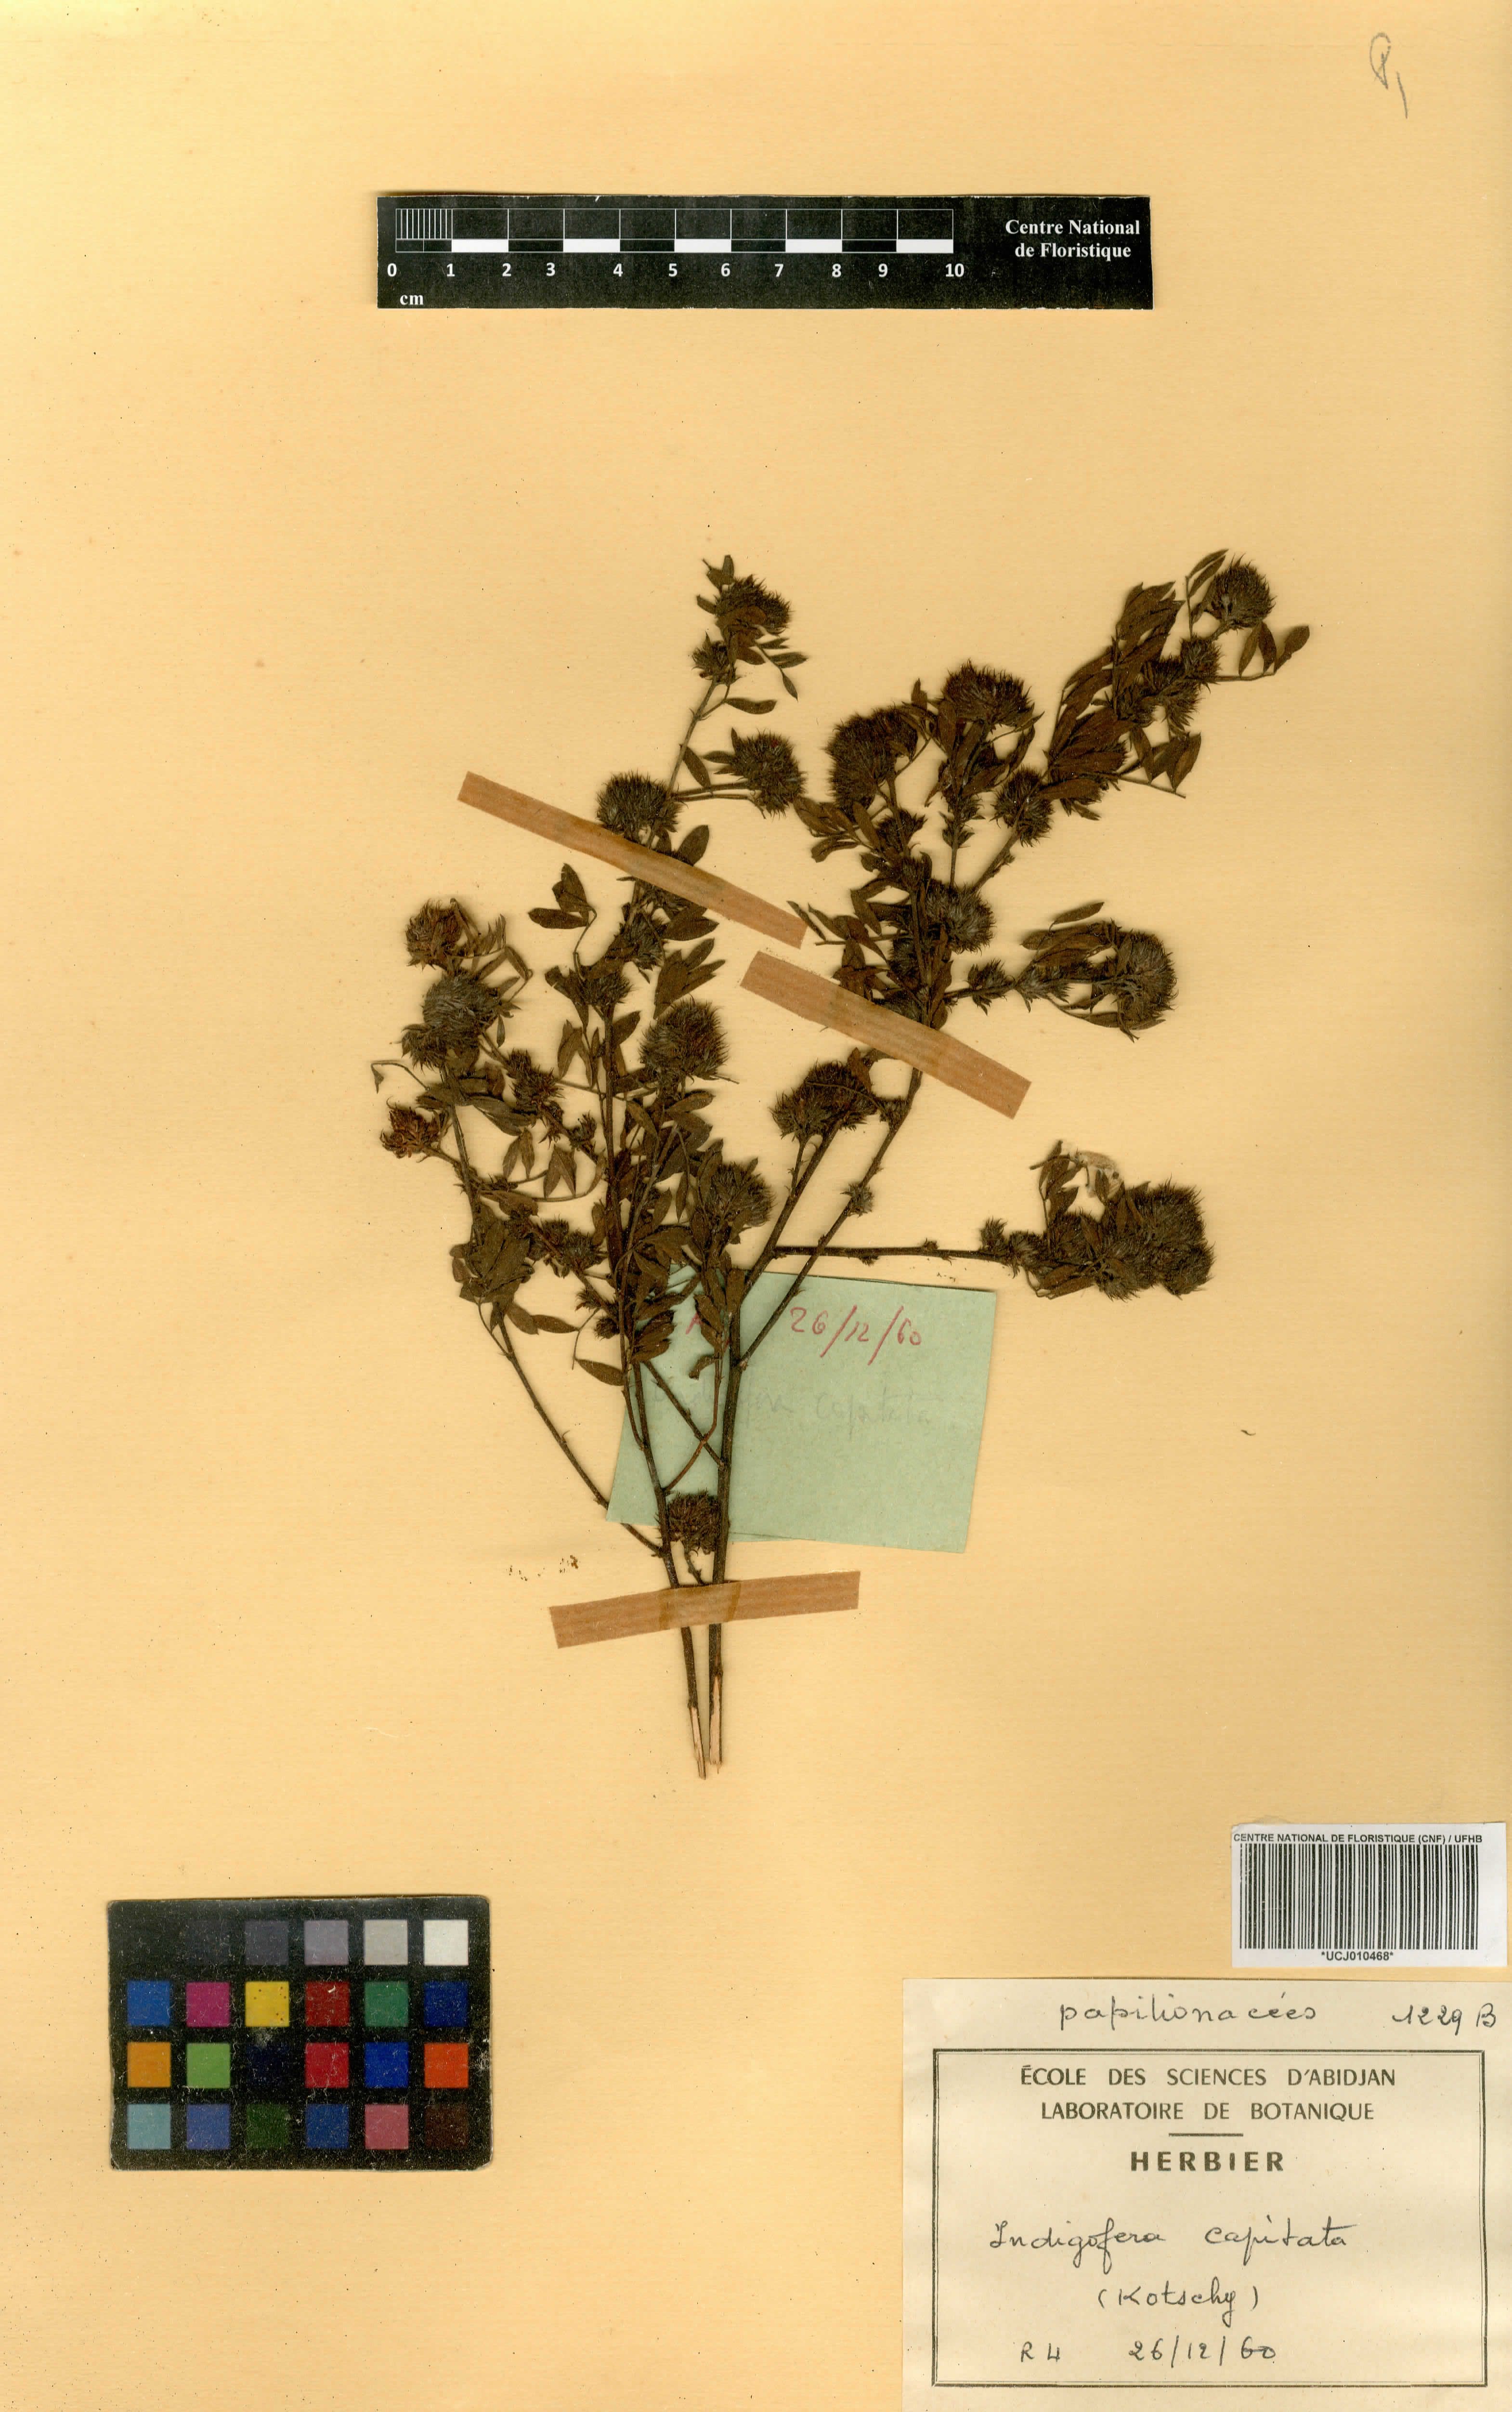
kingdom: Plantae
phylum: Tracheophyta
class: Magnoliopsida
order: Fabales
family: Fabaceae
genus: Indigofera
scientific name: Indigofera capitata
